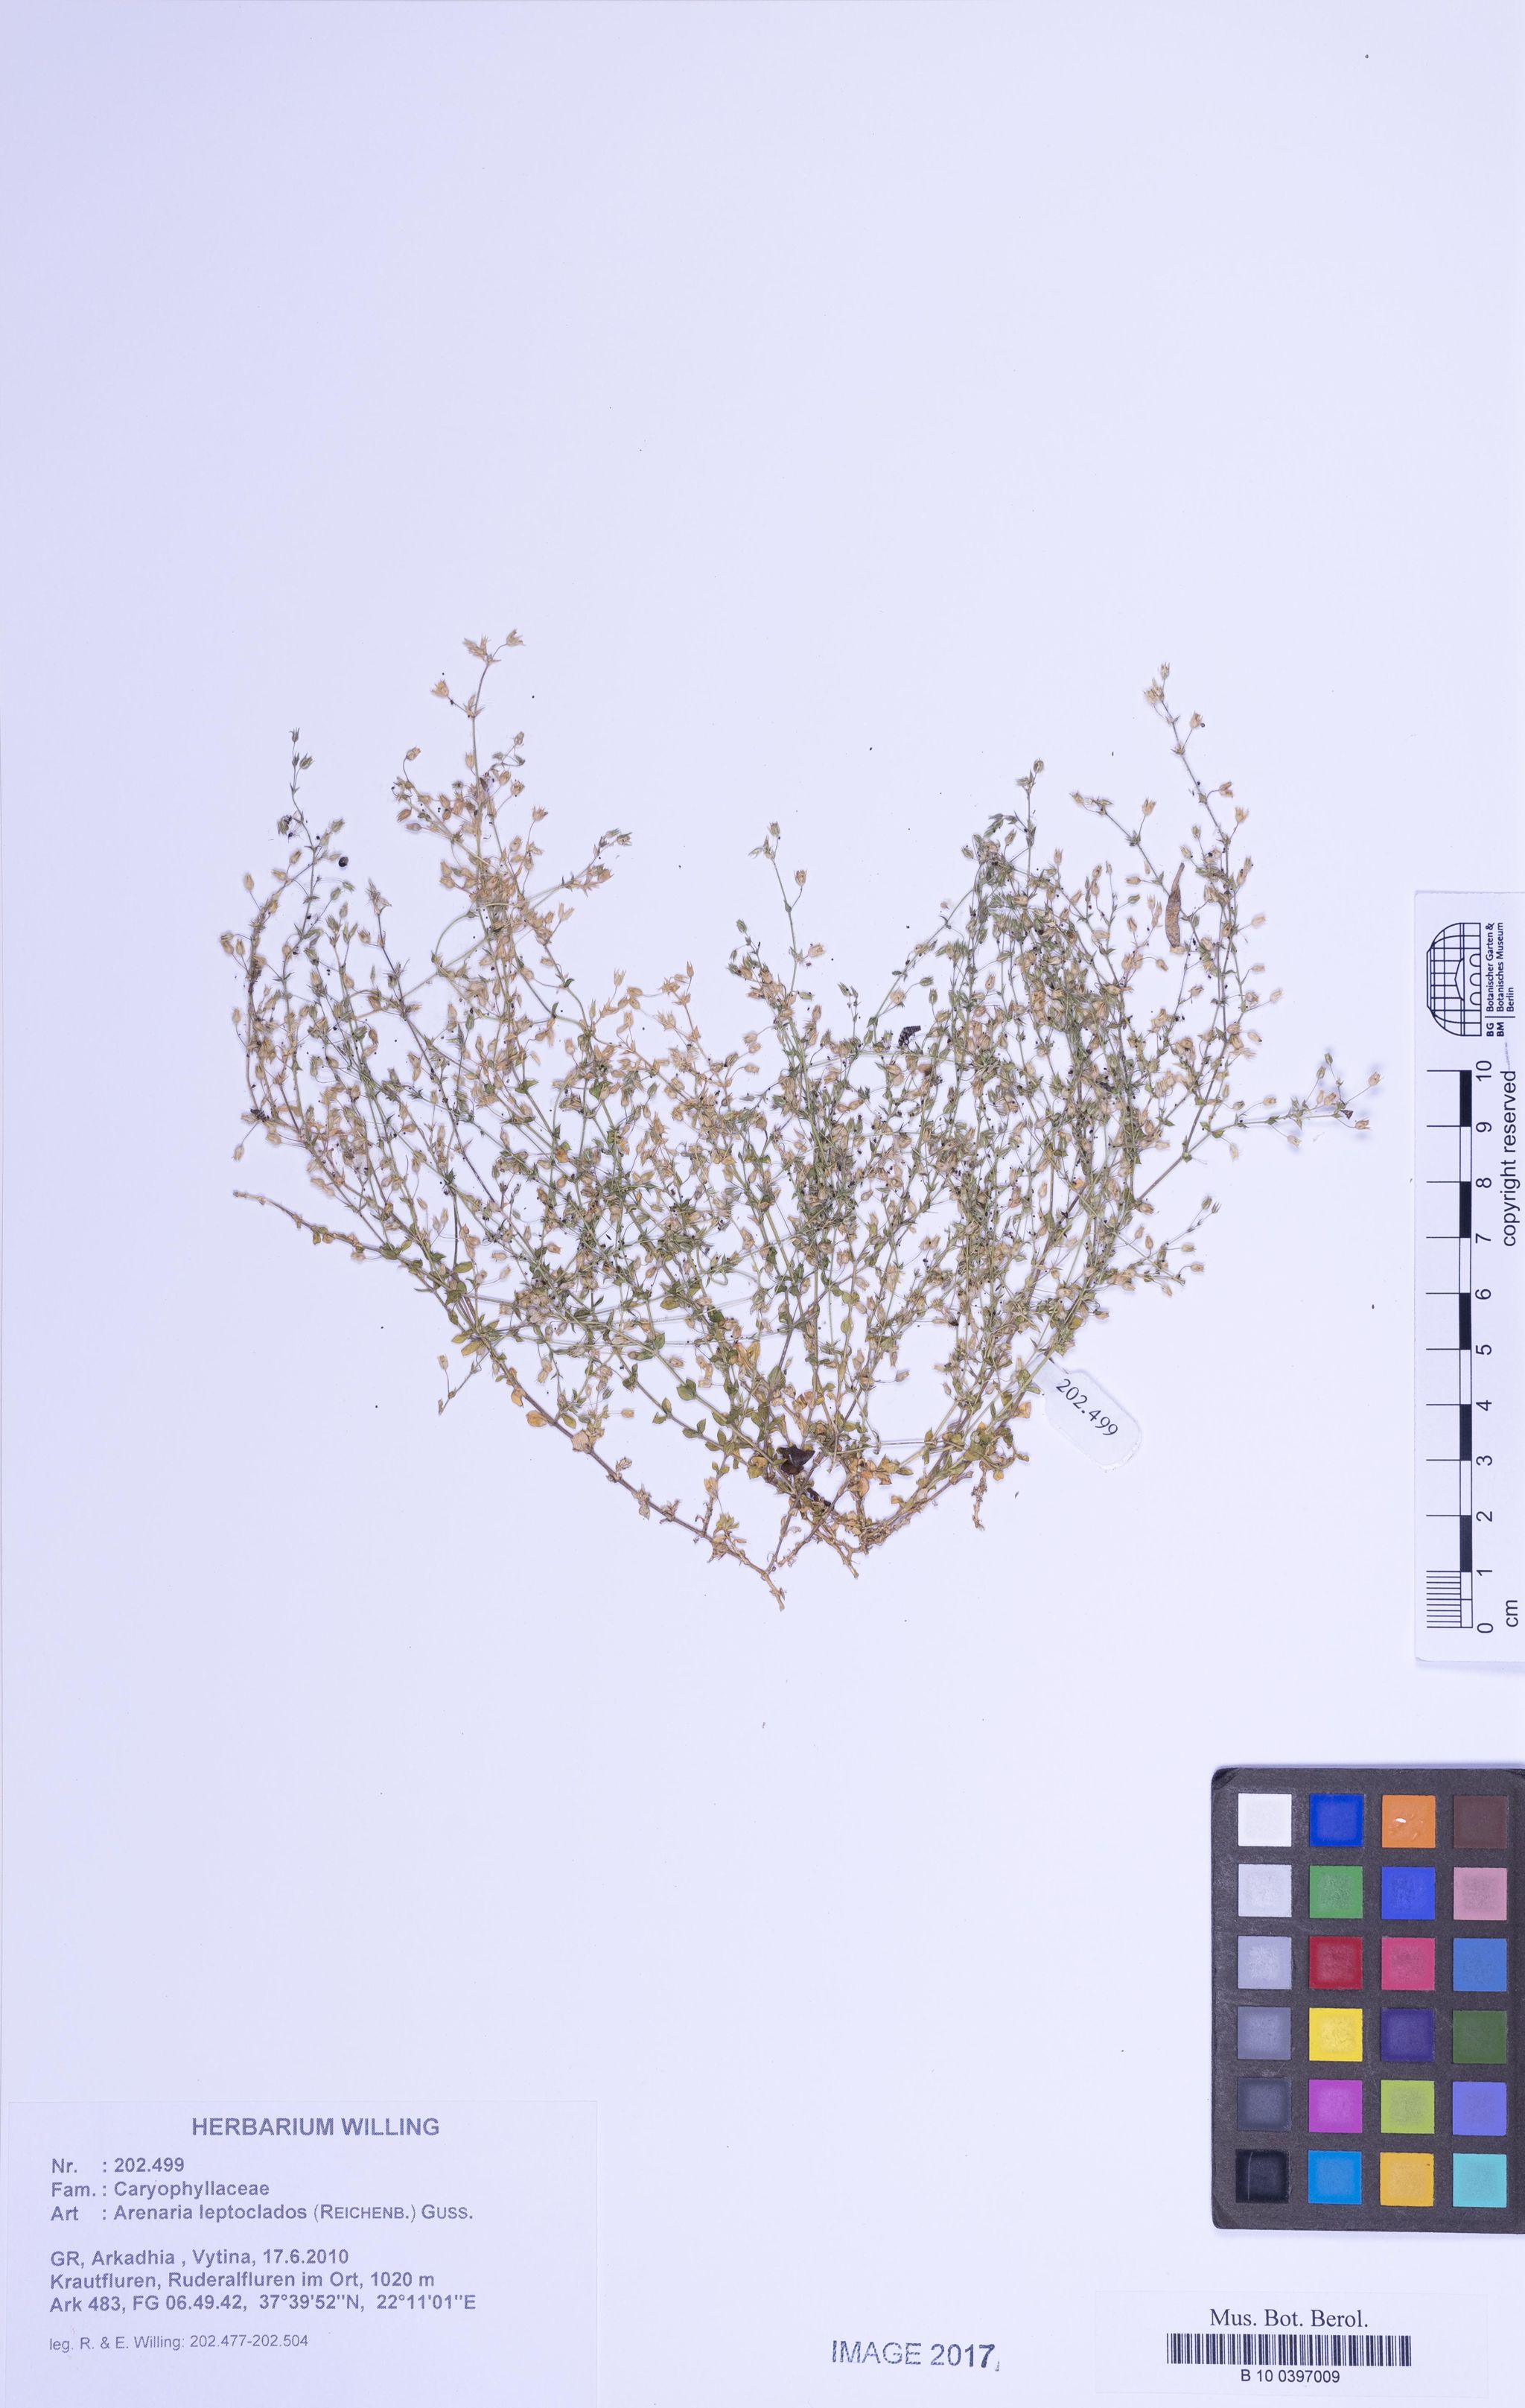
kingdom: Plantae
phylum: Tracheophyta
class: Magnoliopsida
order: Caryophyllales
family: Caryophyllaceae
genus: Arenaria
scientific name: Arenaria leptoclados
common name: Thyme-leaved sandwort
